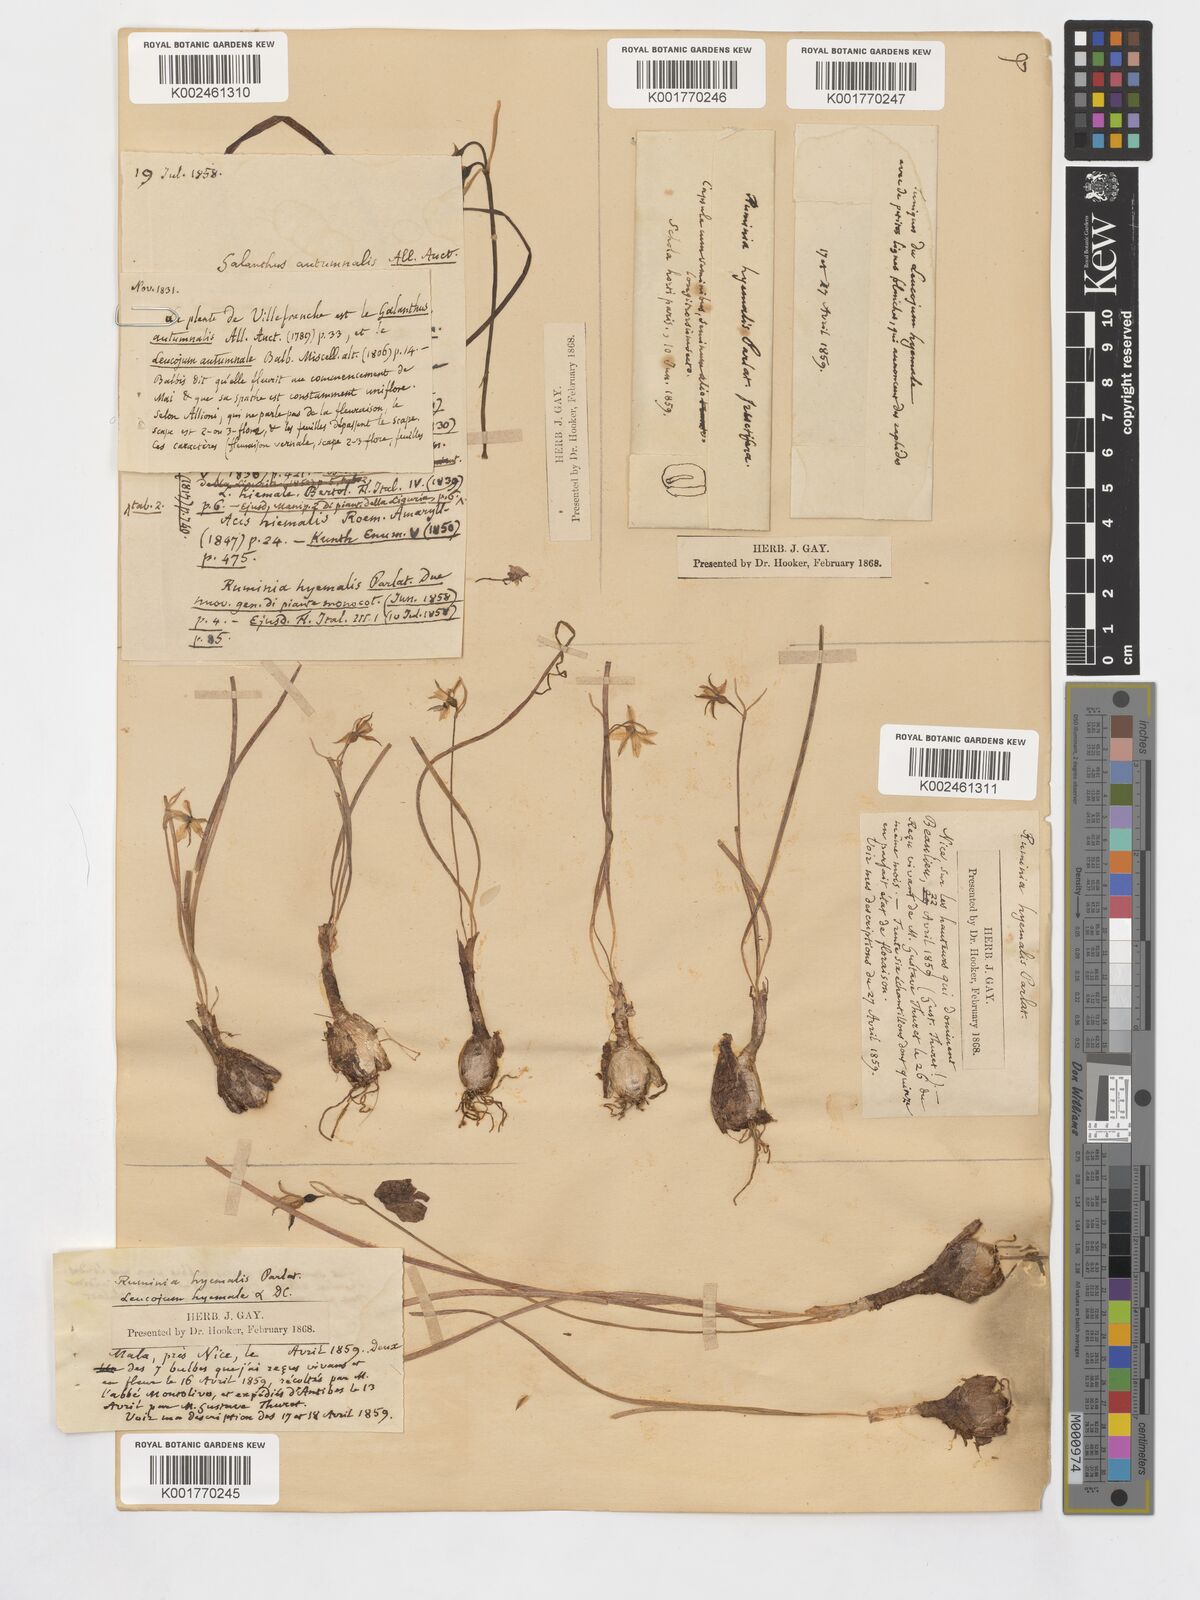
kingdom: Plantae
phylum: Tracheophyta
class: Liliopsida
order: Asparagales
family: Amaryllidaceae
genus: Acis
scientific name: Acis autumnalis
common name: Autumn snowflake
